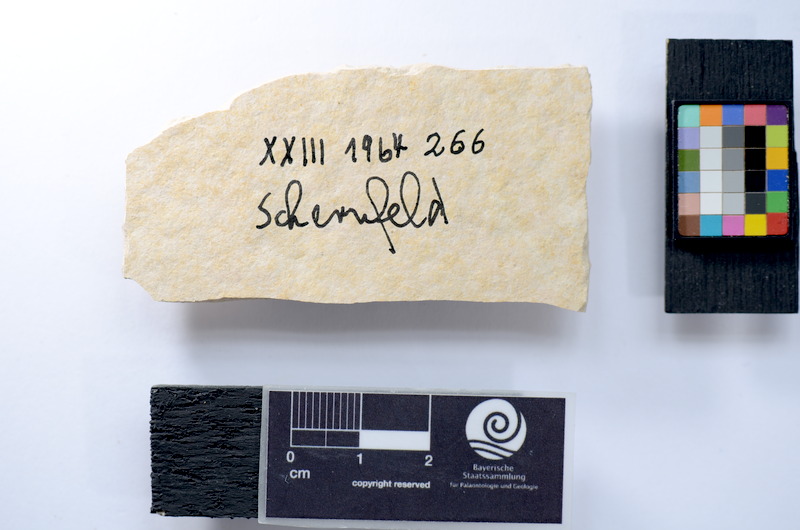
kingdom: Animalia
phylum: Chordata
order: Salmoniformes
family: Orthogonikleithridae
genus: Leptolepides
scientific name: Leptolepides
